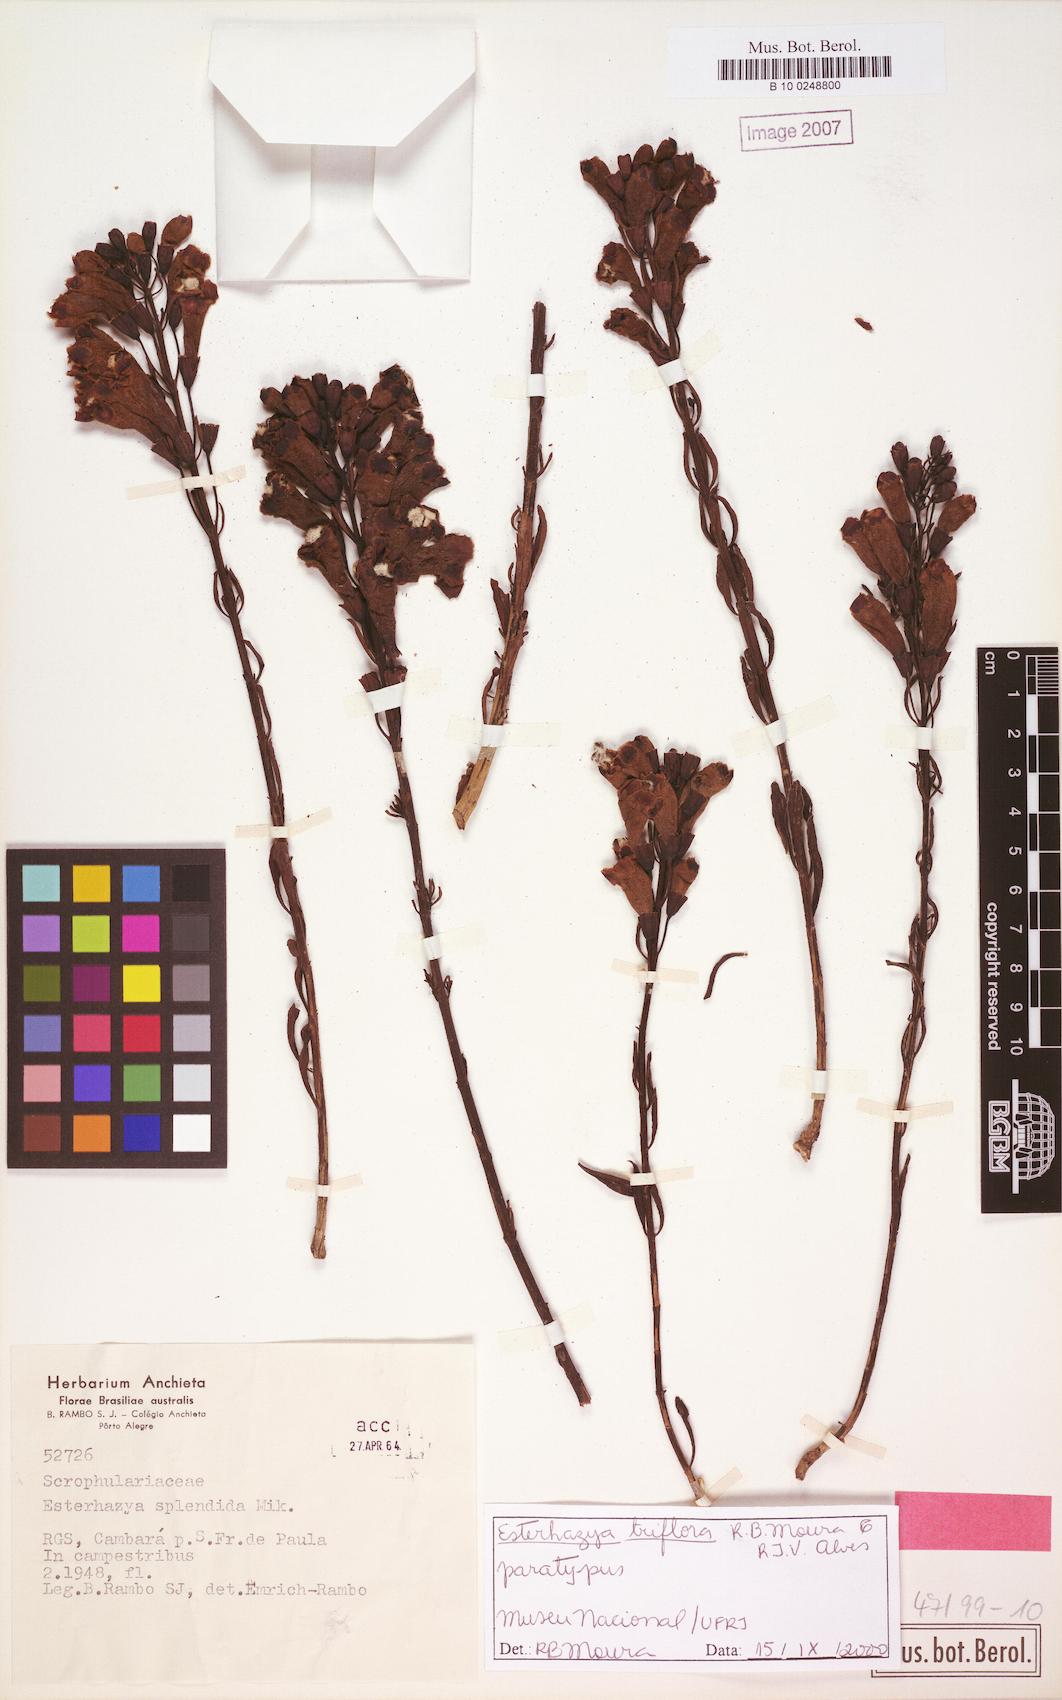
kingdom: Plantae
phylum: Tracheophyta
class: Magnoliopsida
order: Lamiales
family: Orobanchaceae
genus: Esterhazya
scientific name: Esterhazya triflora
